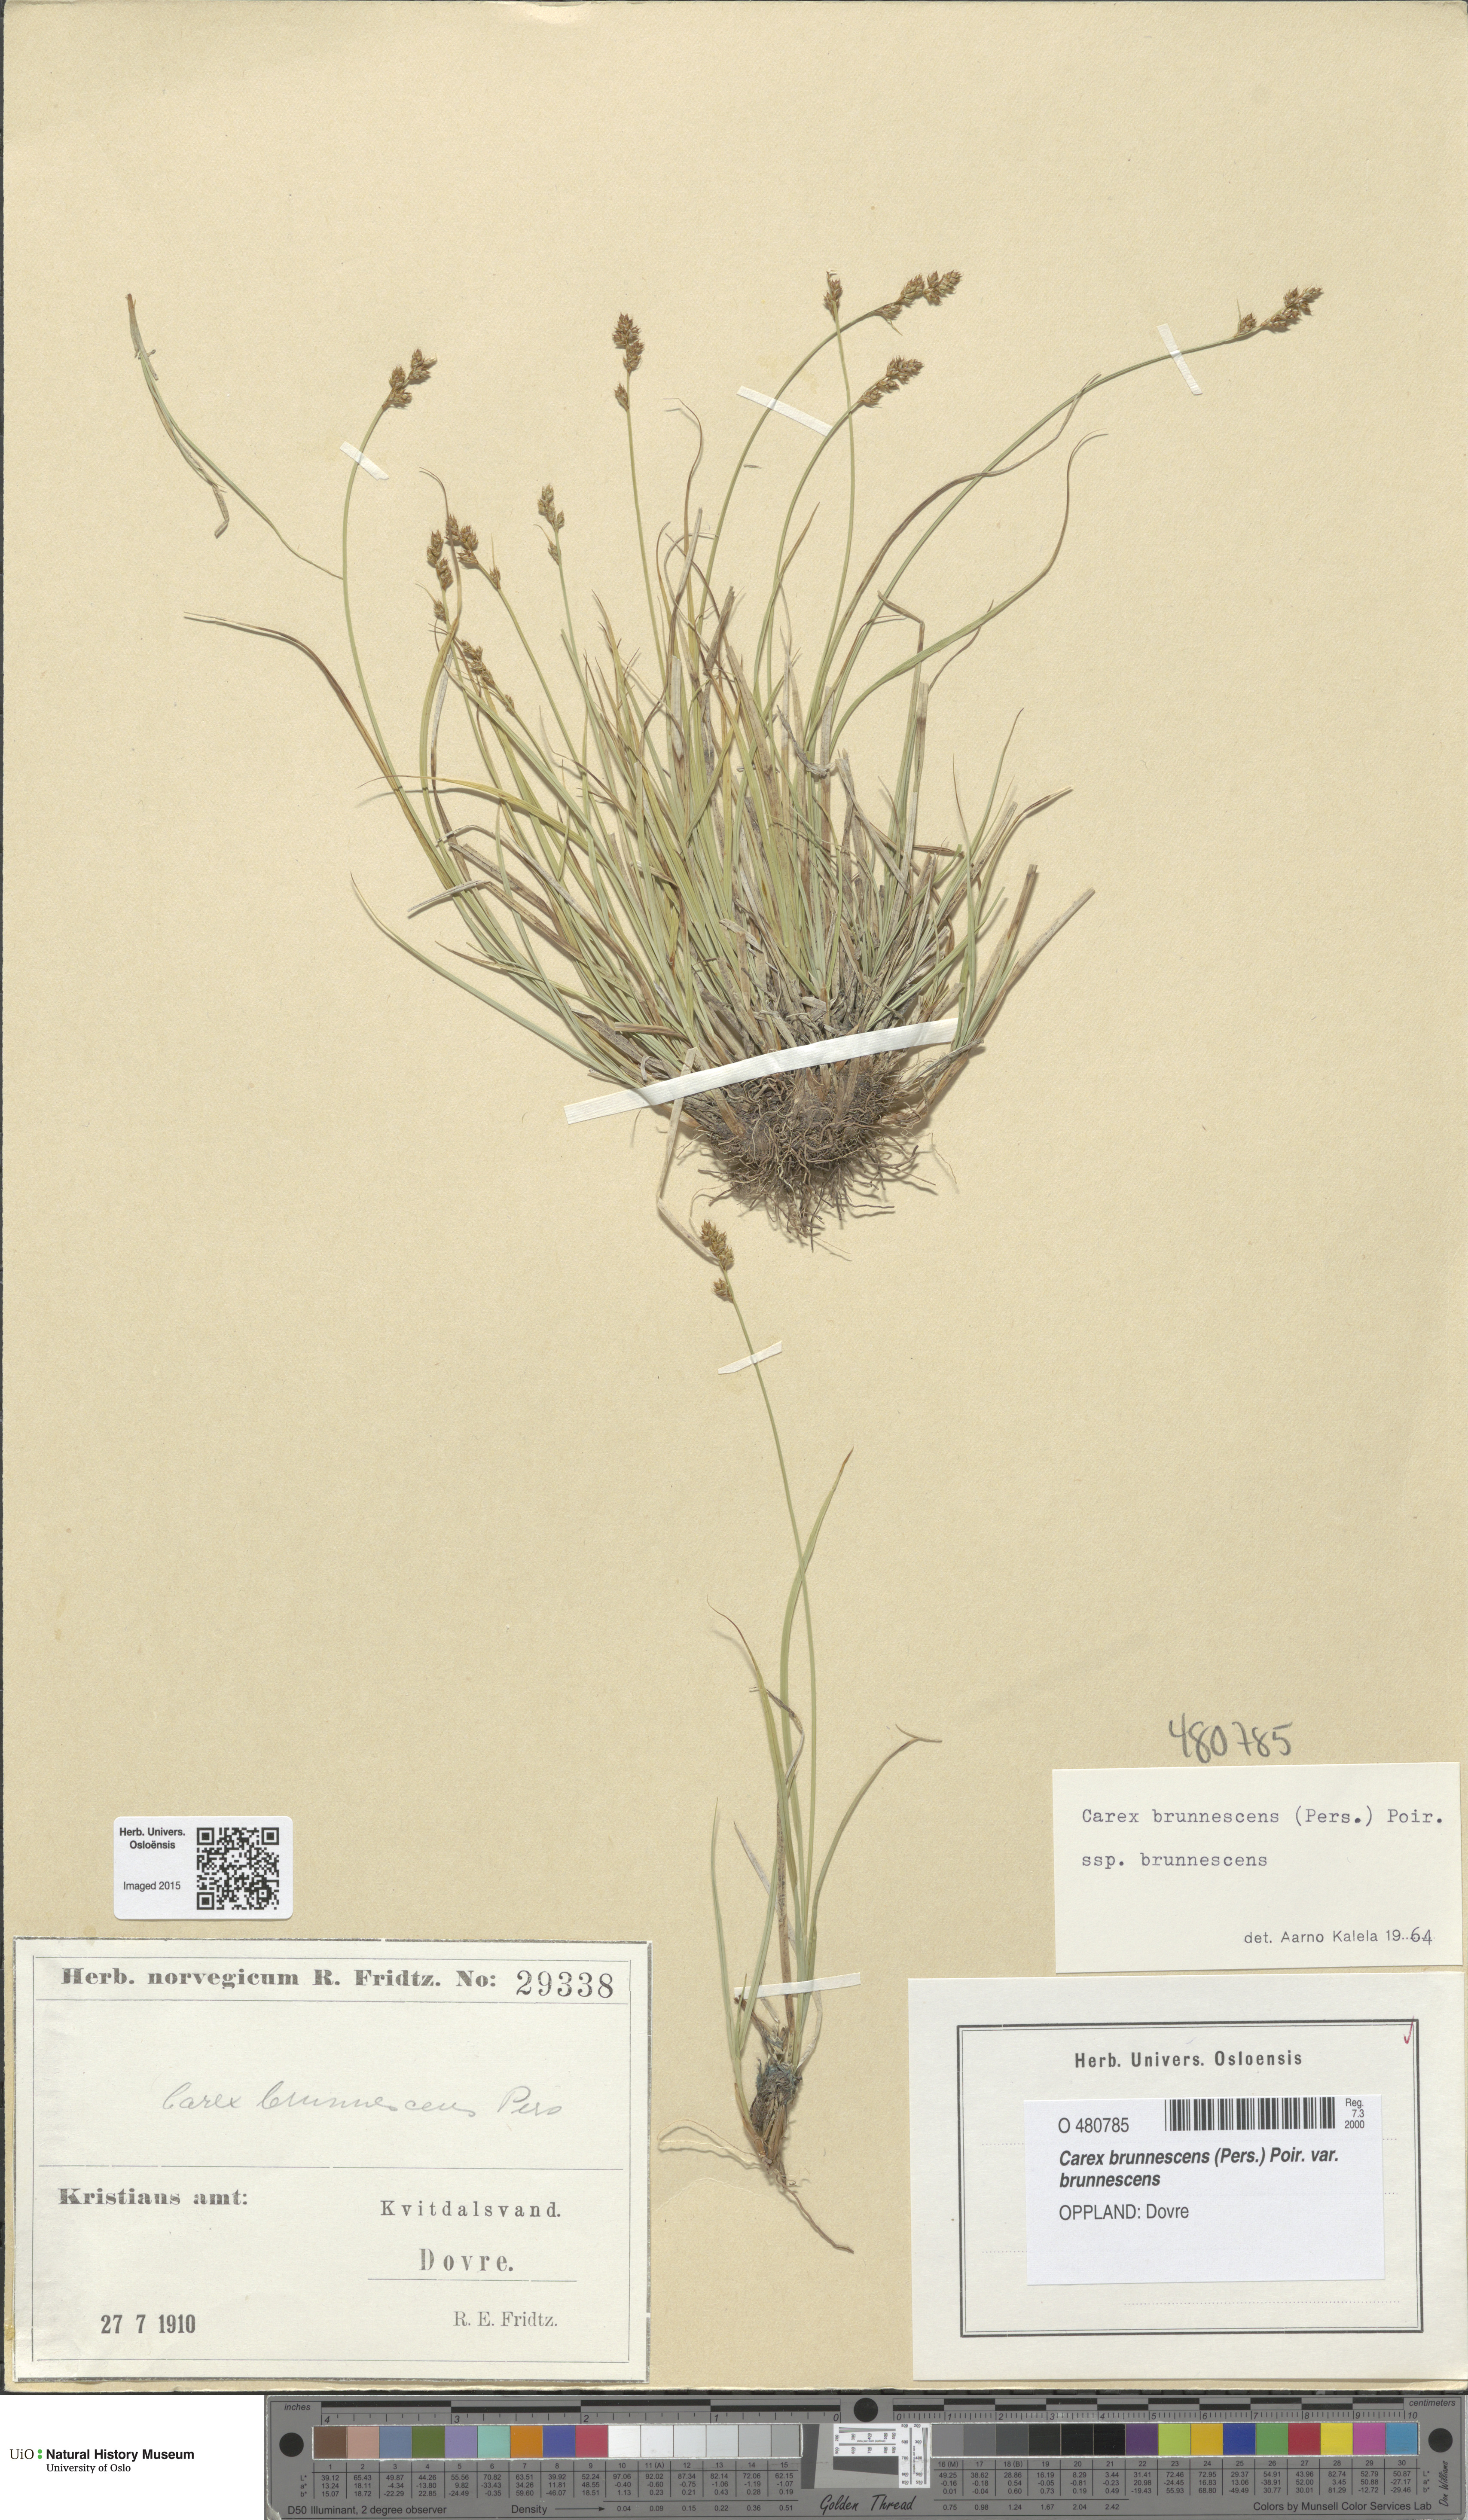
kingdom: Plantae
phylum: Tracheophyta
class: Liliopsida
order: Poales
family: Cyperaceae
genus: Carex
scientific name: Carex brunnescens
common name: Brown sedge
